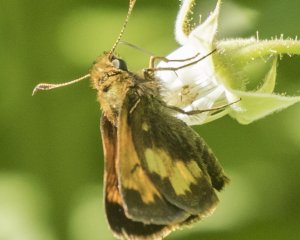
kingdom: Animalia
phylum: Arthropoda
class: Insecta
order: Lepidoptera
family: Hesperiidae
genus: Lon
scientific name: Lon hobomok
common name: Hobomok Skipper
